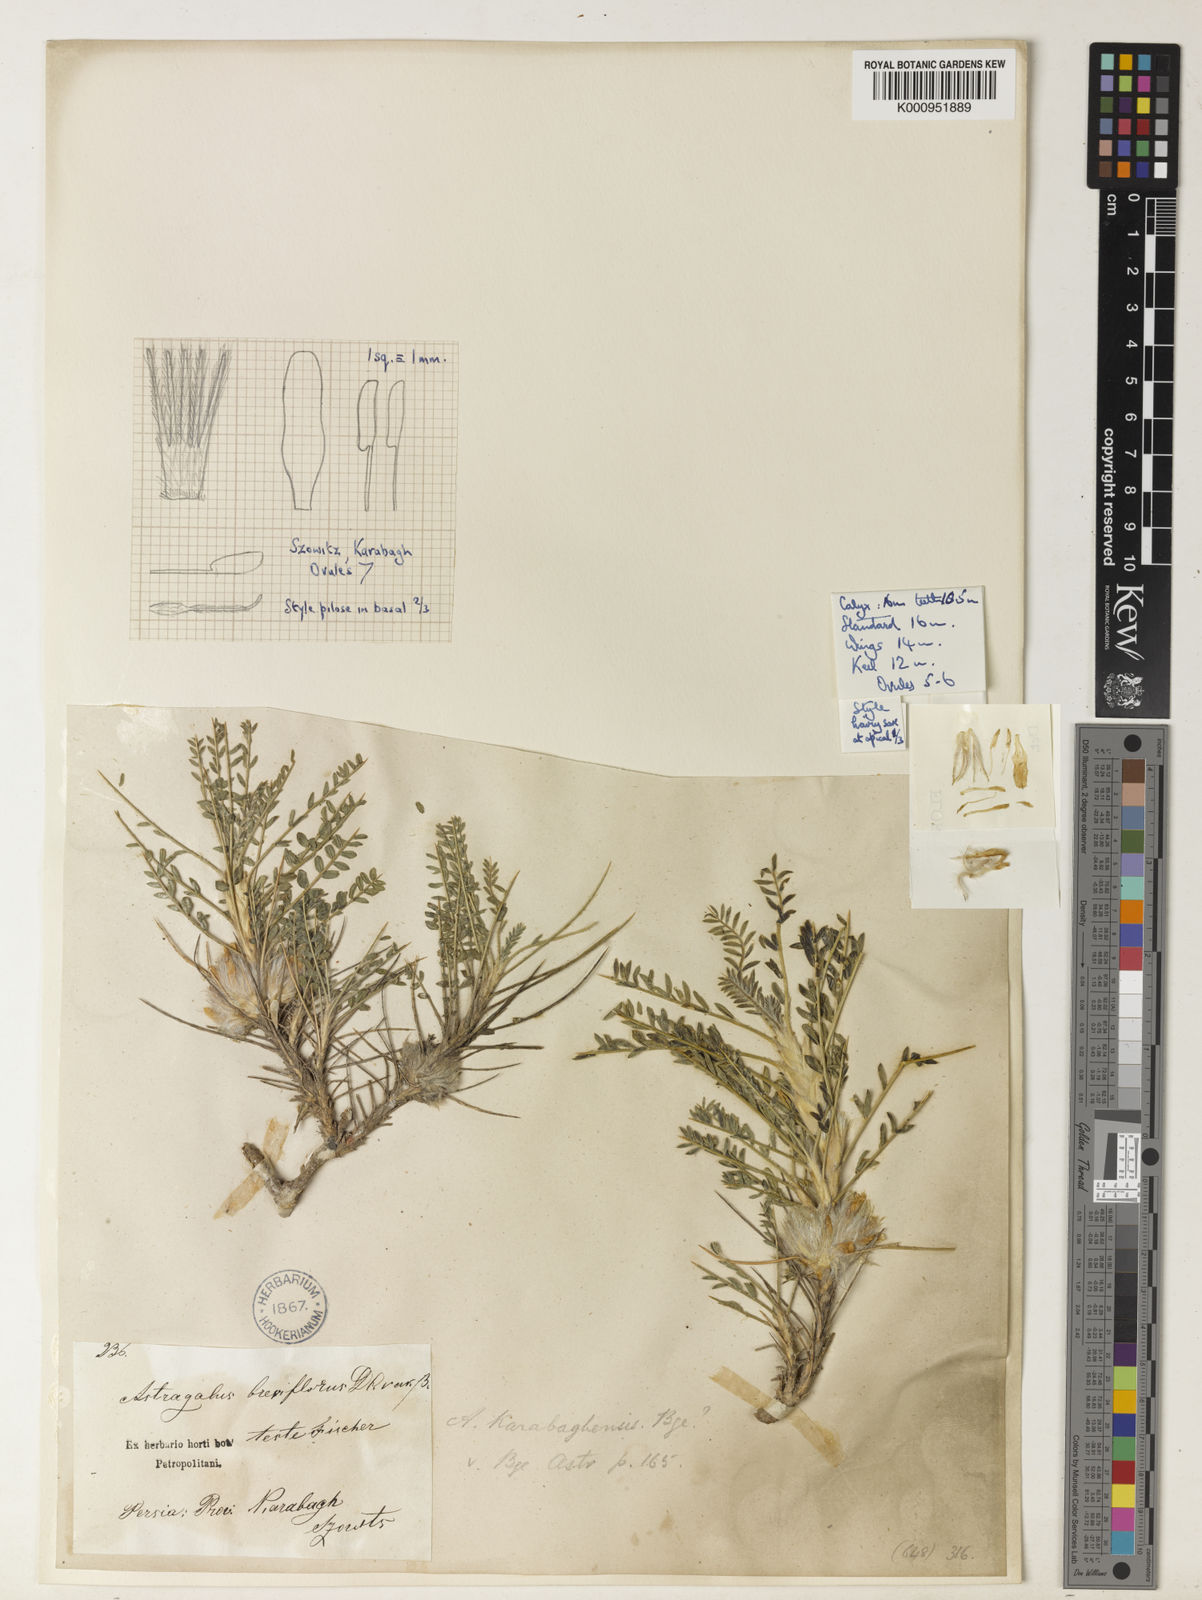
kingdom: Plantae
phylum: Tracheophyta
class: Magnoliopsida
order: Fabales
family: Fabaceae
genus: Astragalus
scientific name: Astragalus karabaghensis
